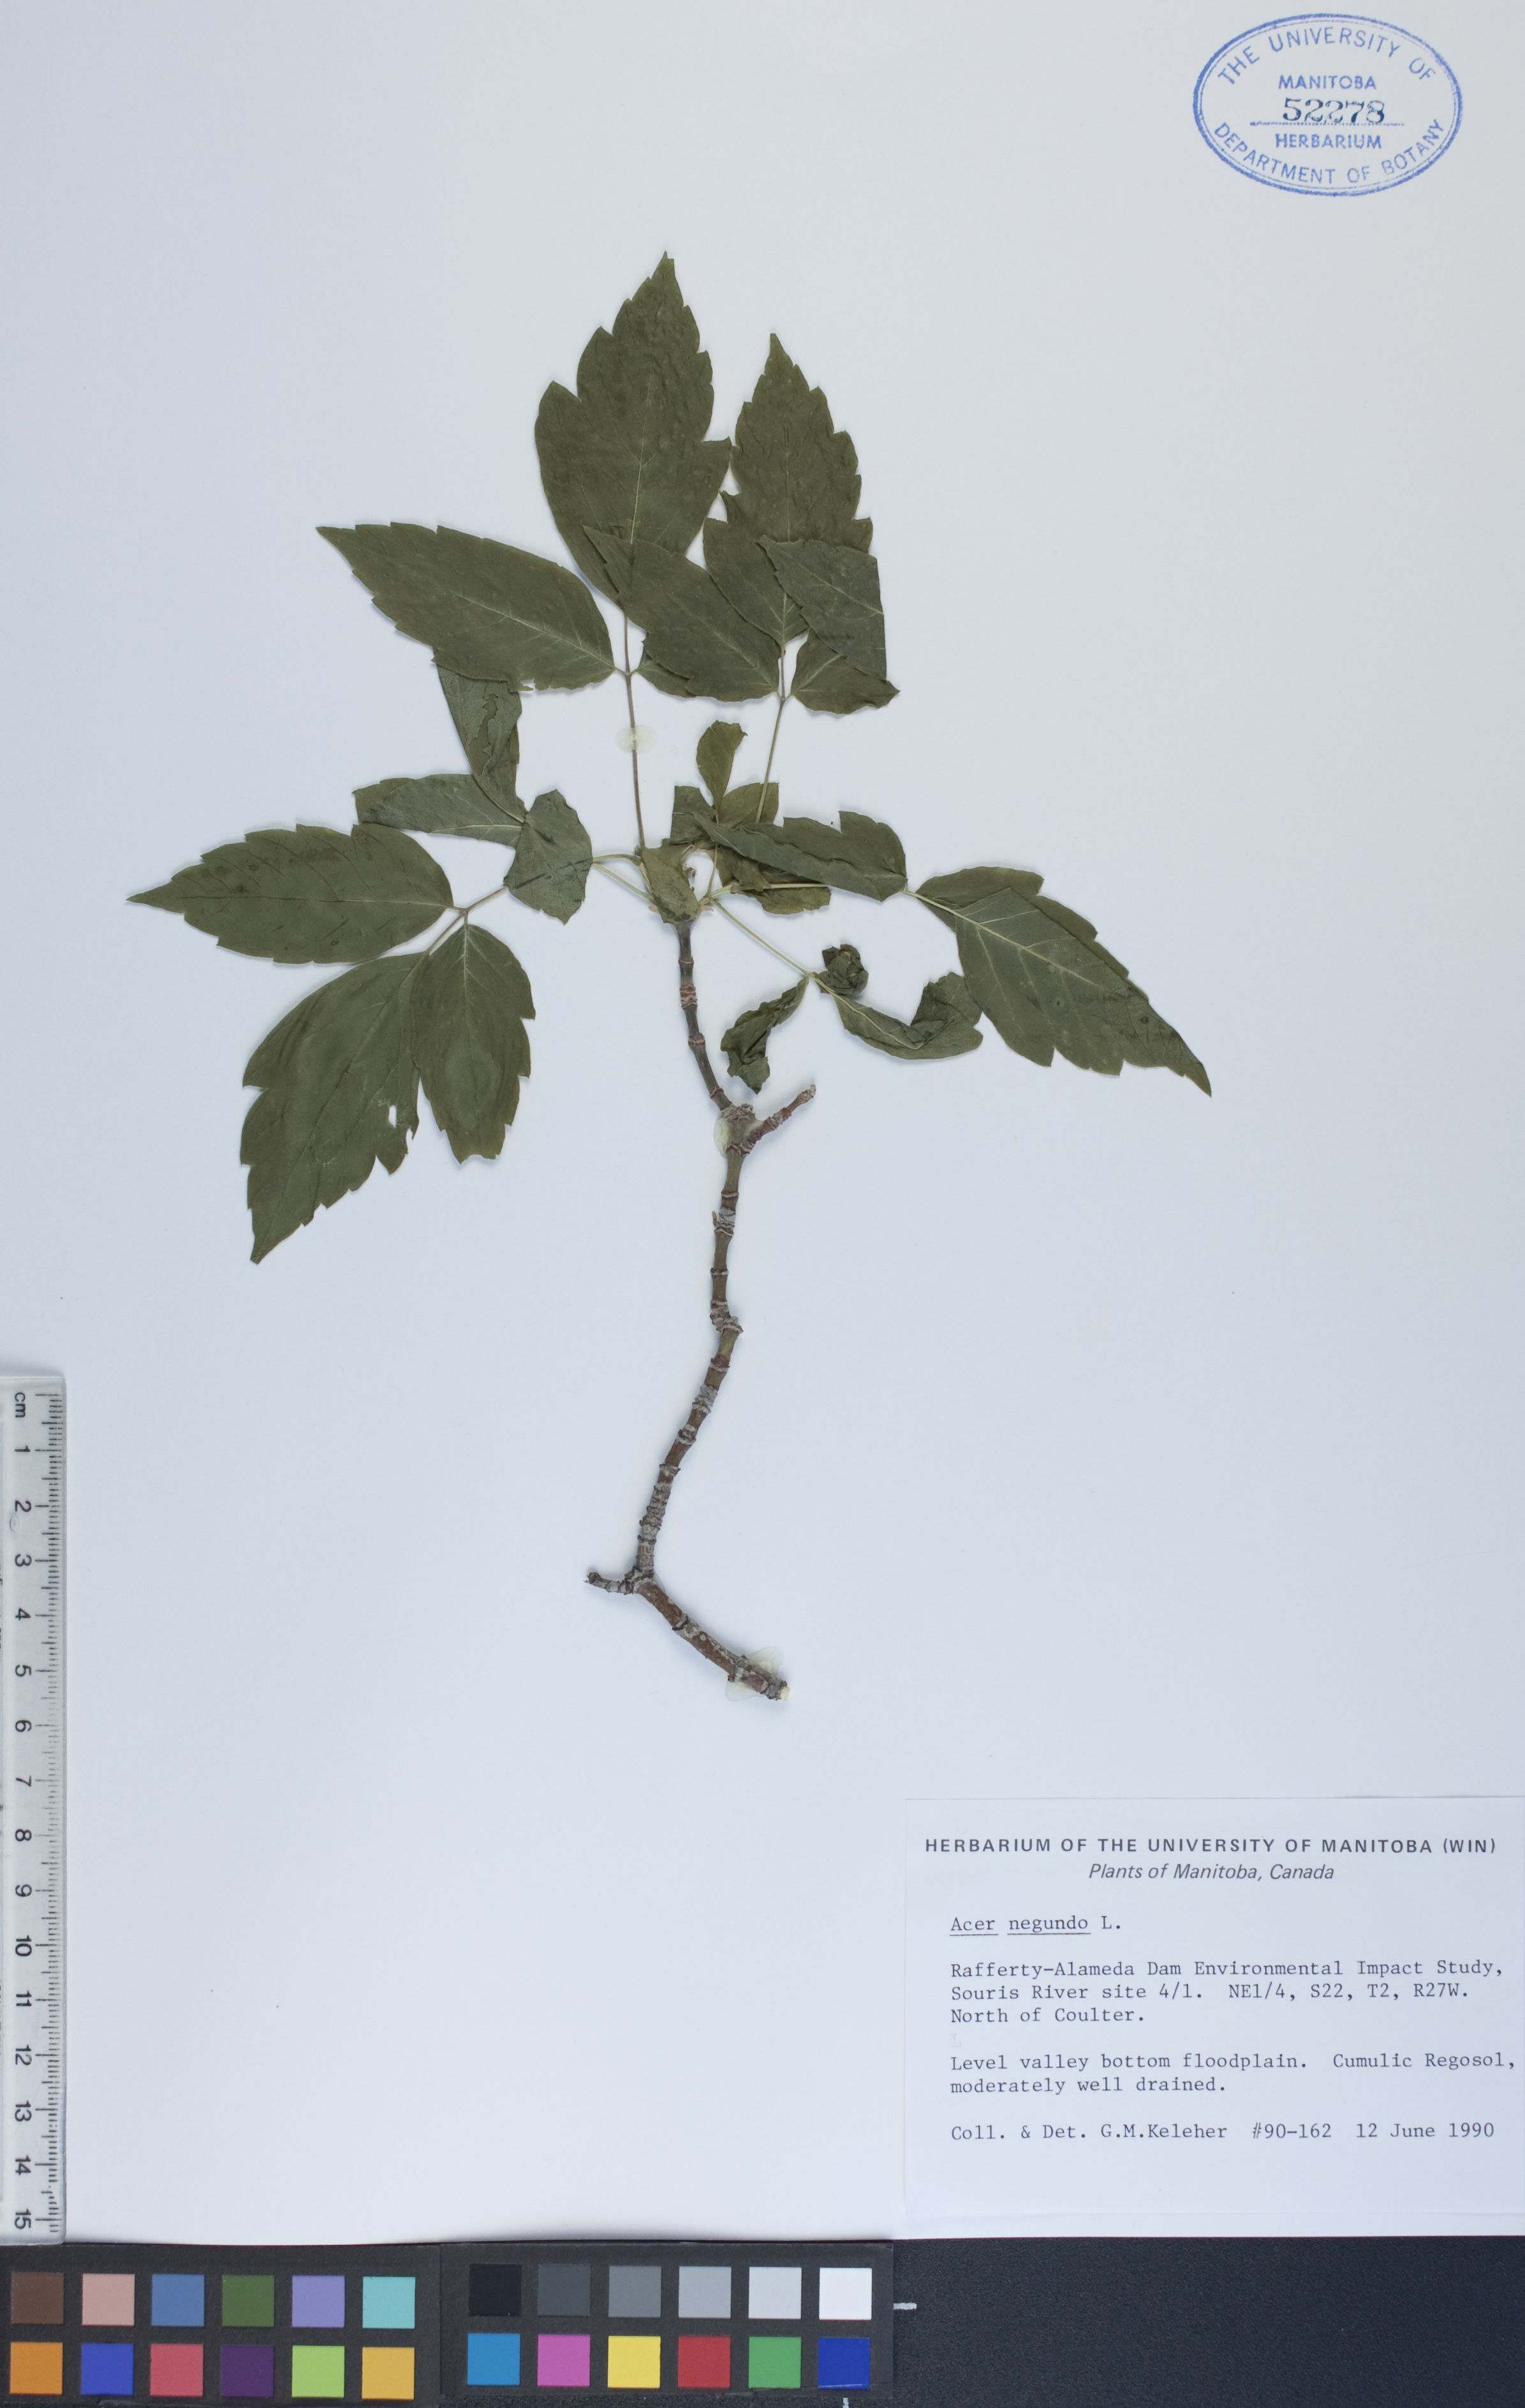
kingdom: Plantae
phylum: Tracheophyta
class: Magnoliopsida
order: Sapindales
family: Sapindaceae
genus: Acer
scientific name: Acer negundo
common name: Ashleaf maple
